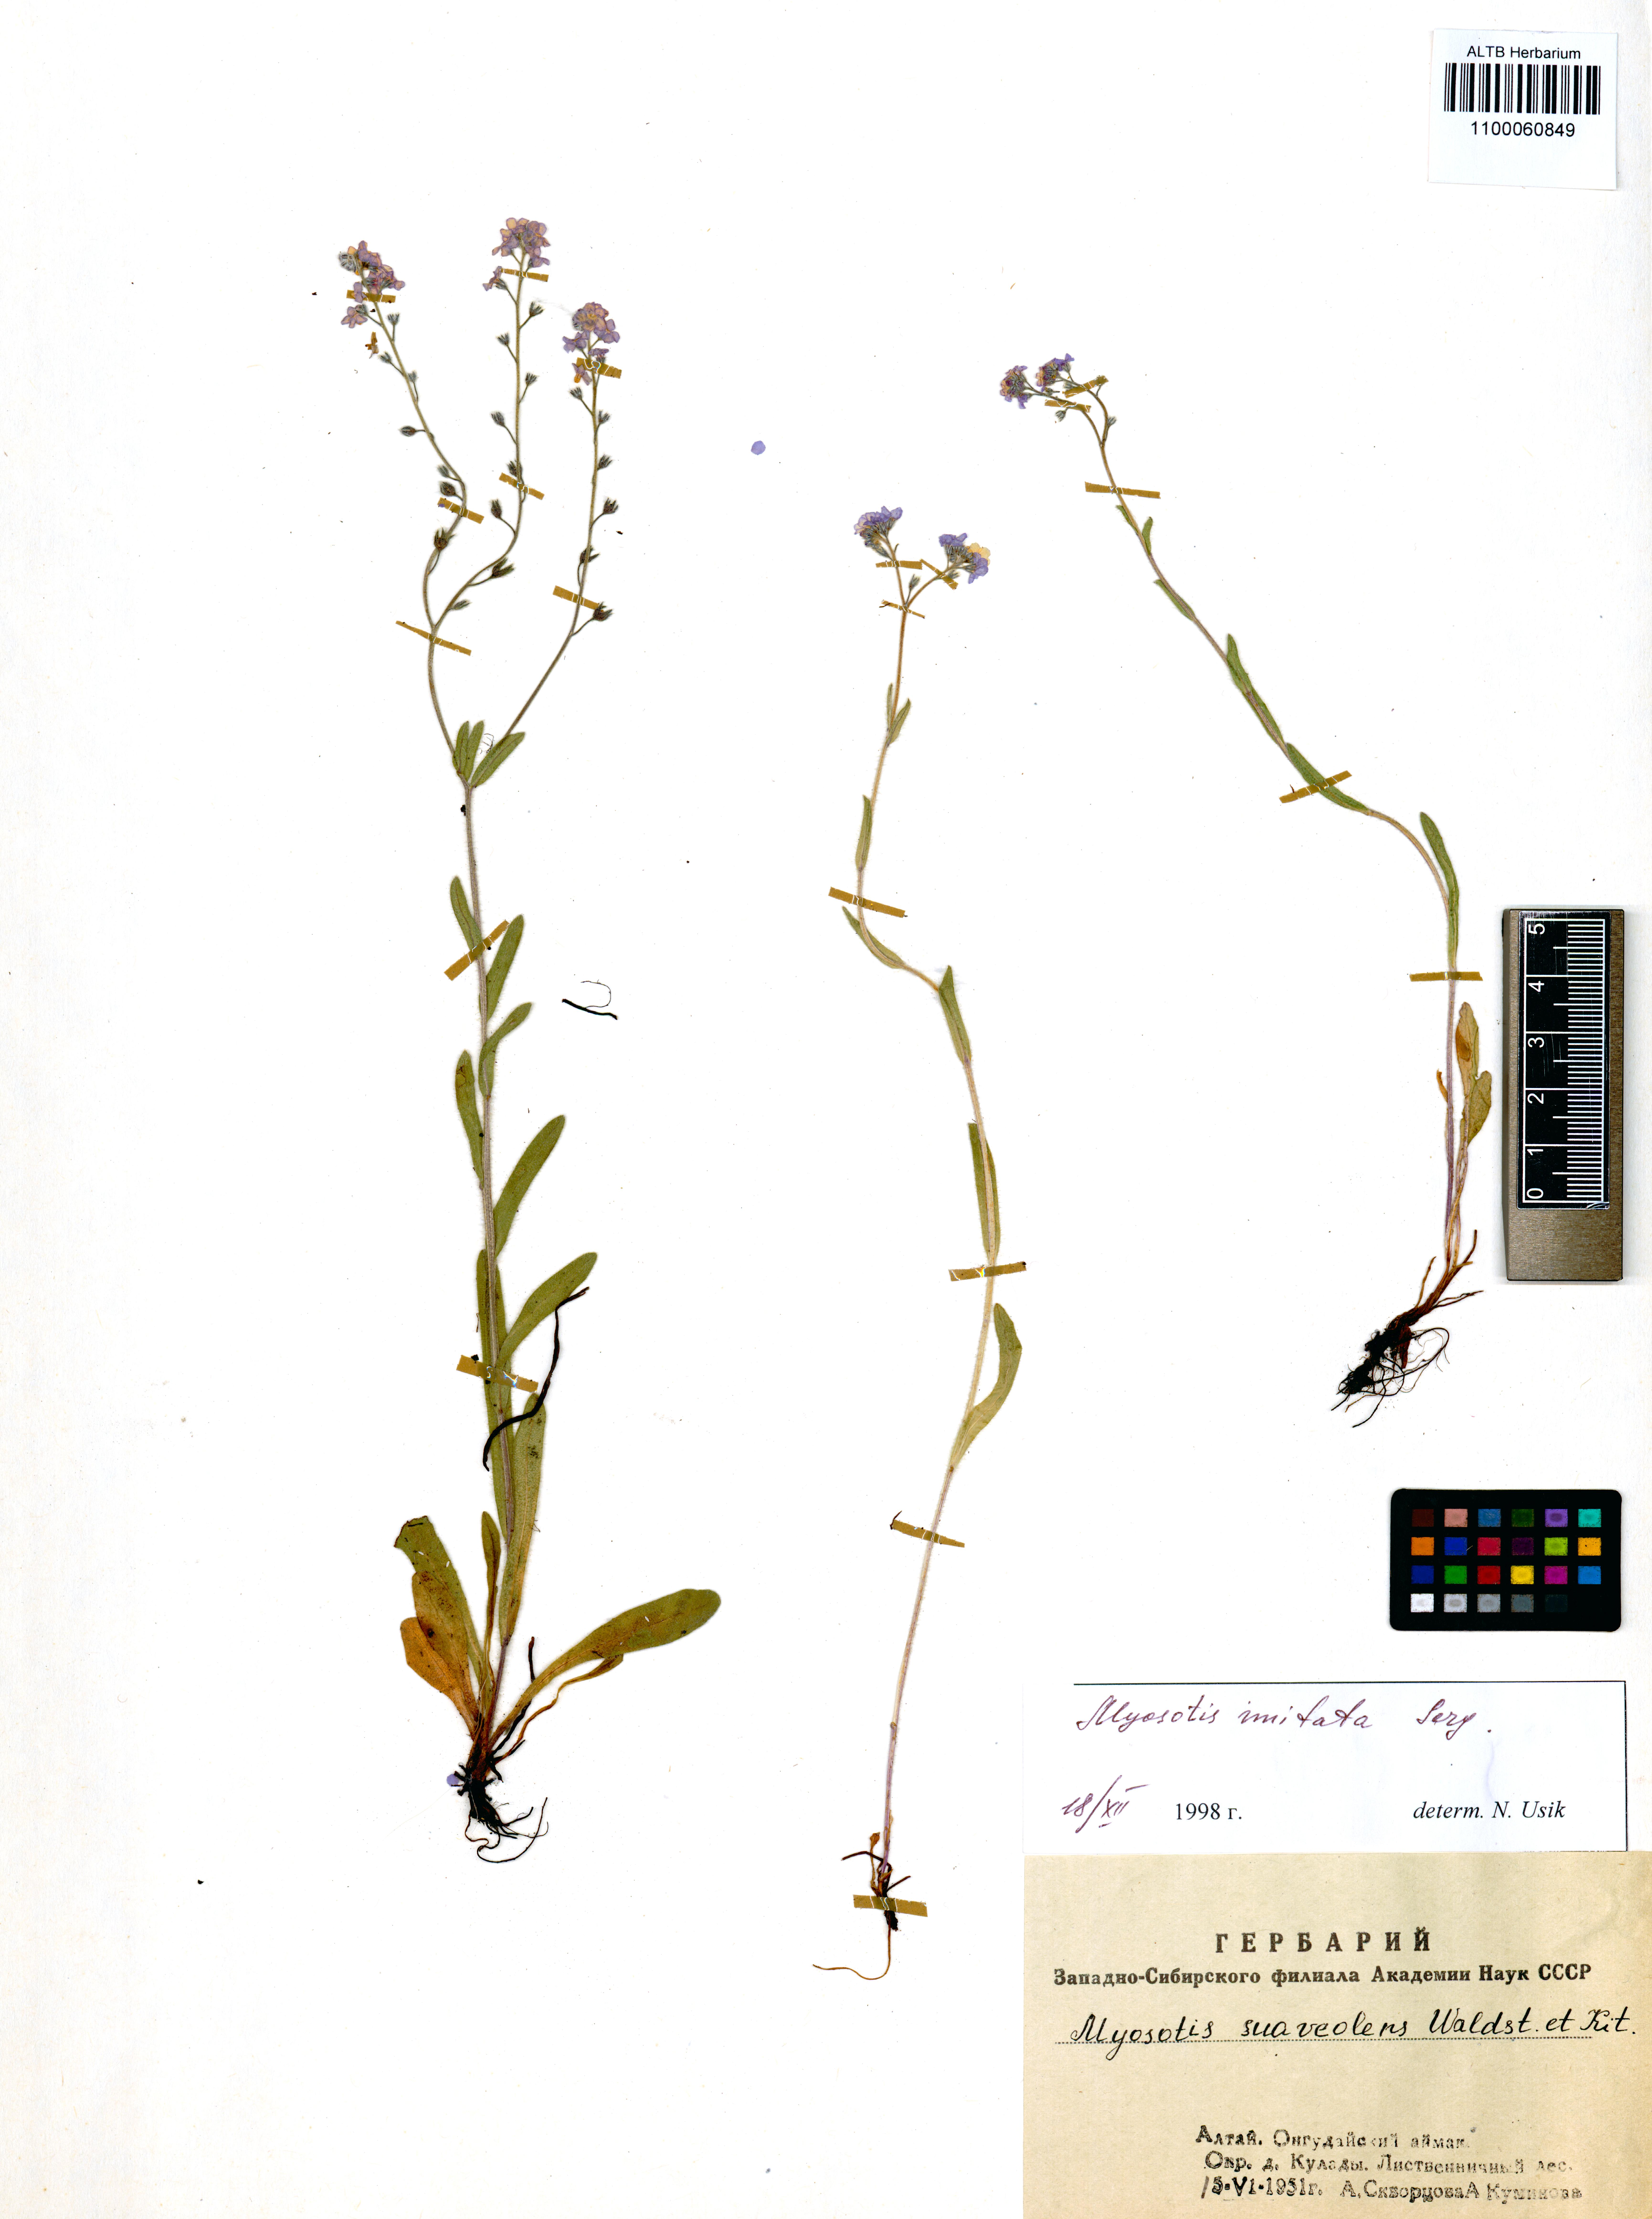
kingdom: Plantae
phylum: Tracheophyta
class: Magnoliopsida
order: Boraginales
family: Boraginaceae
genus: Myosotis
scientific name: Myosotis imitata
